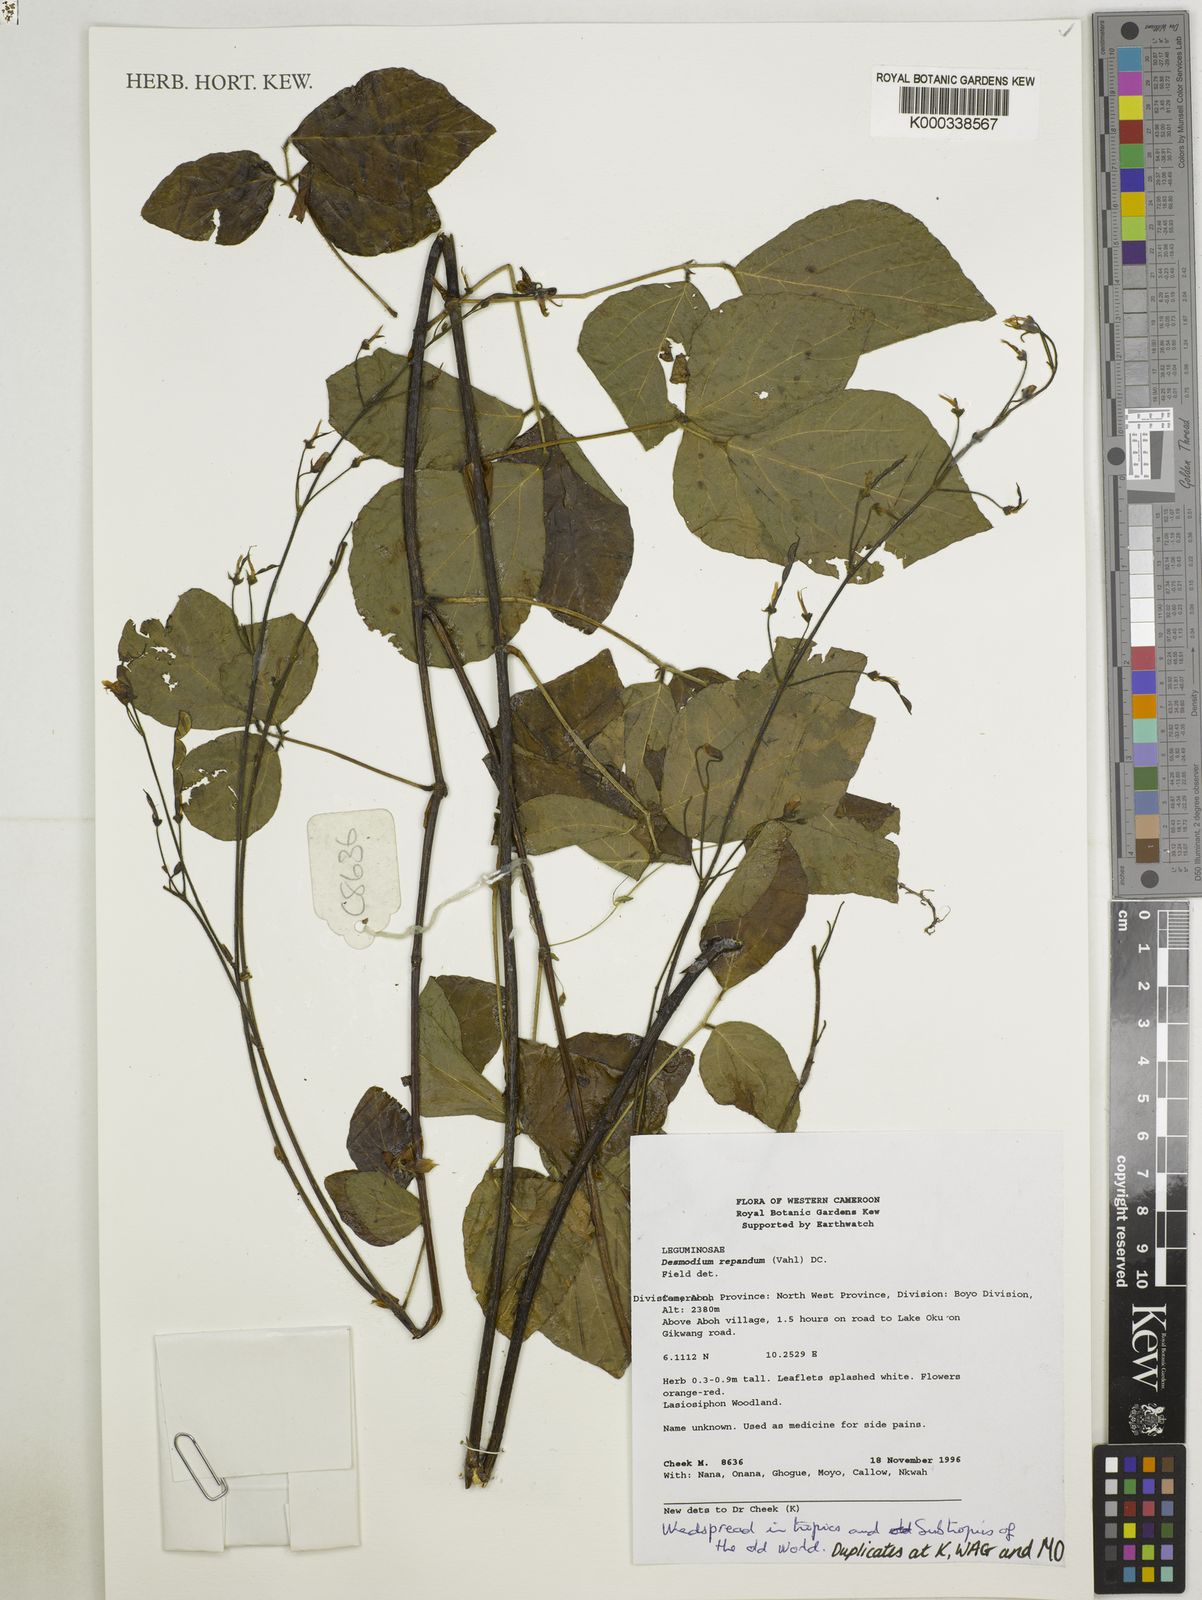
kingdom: Plantae
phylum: Tracheophyta
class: Magnoliopsida
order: Fabales
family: Fabaceae
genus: Desmodium
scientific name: Desmodium
